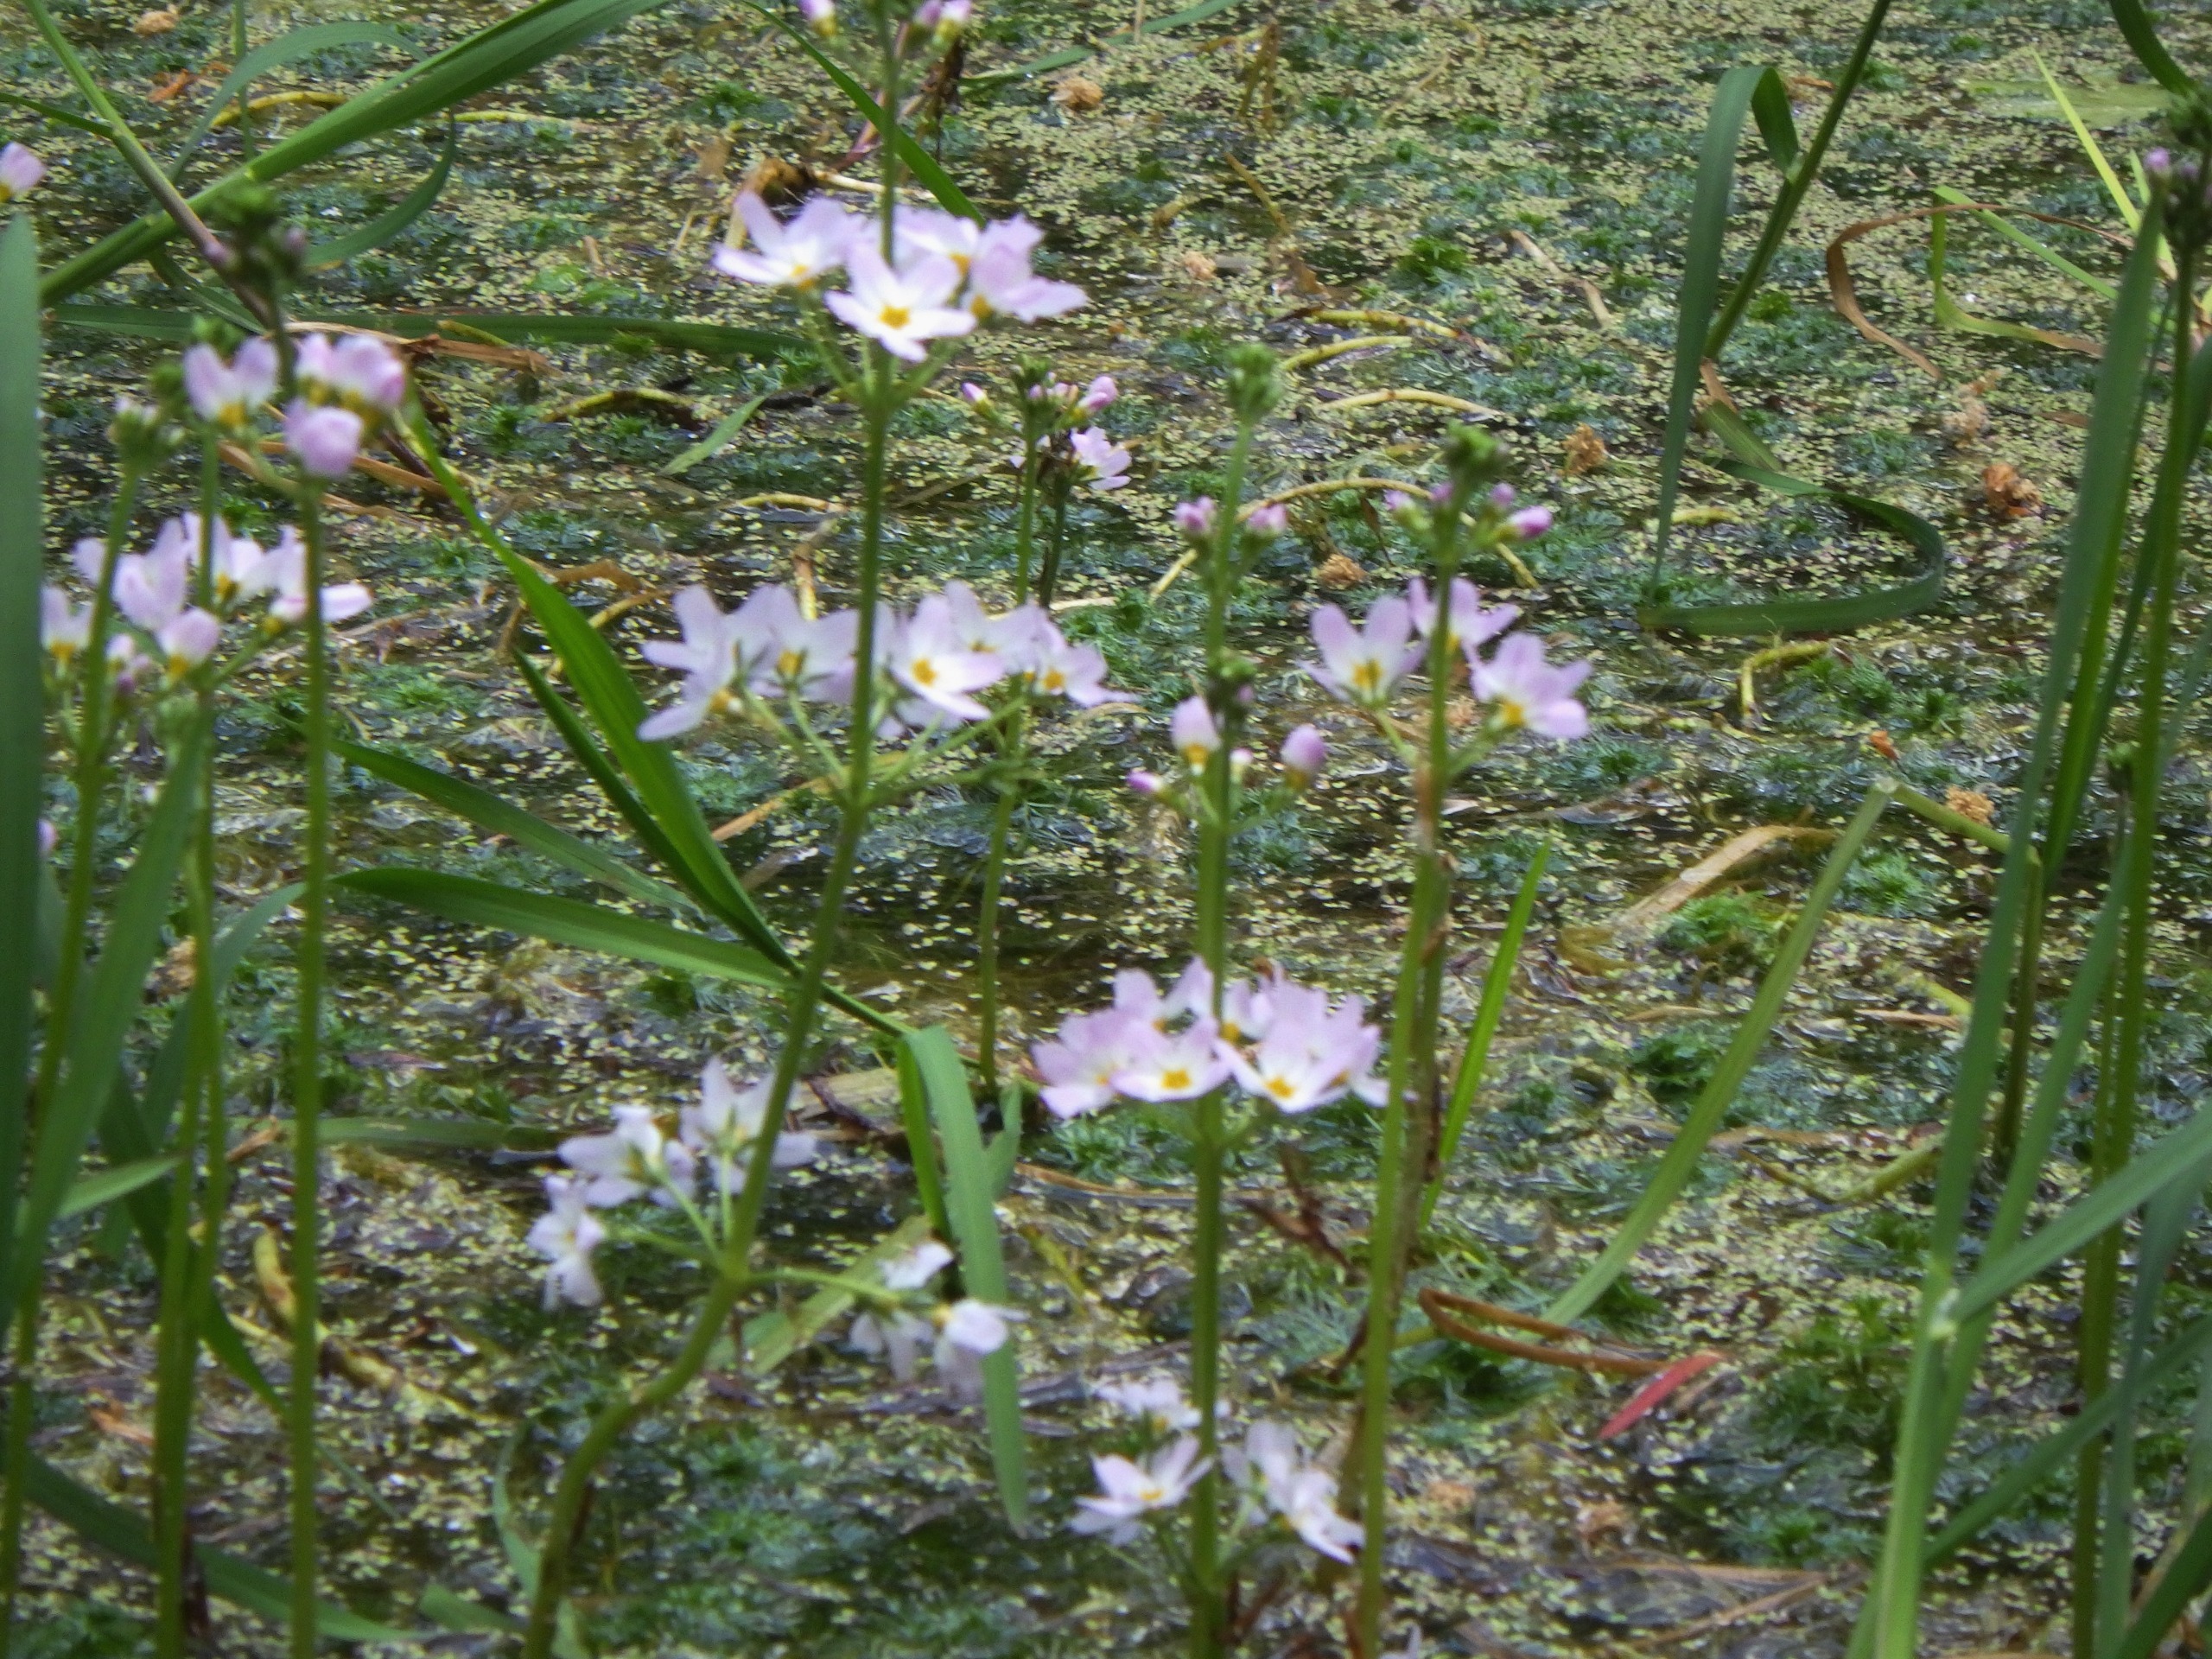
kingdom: Plantae
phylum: Tracheophyta
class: Magnoliopsida
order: Ericales
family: Primulaceae
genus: Hottonia
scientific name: Hottonia palustris
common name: Vandrøllike
